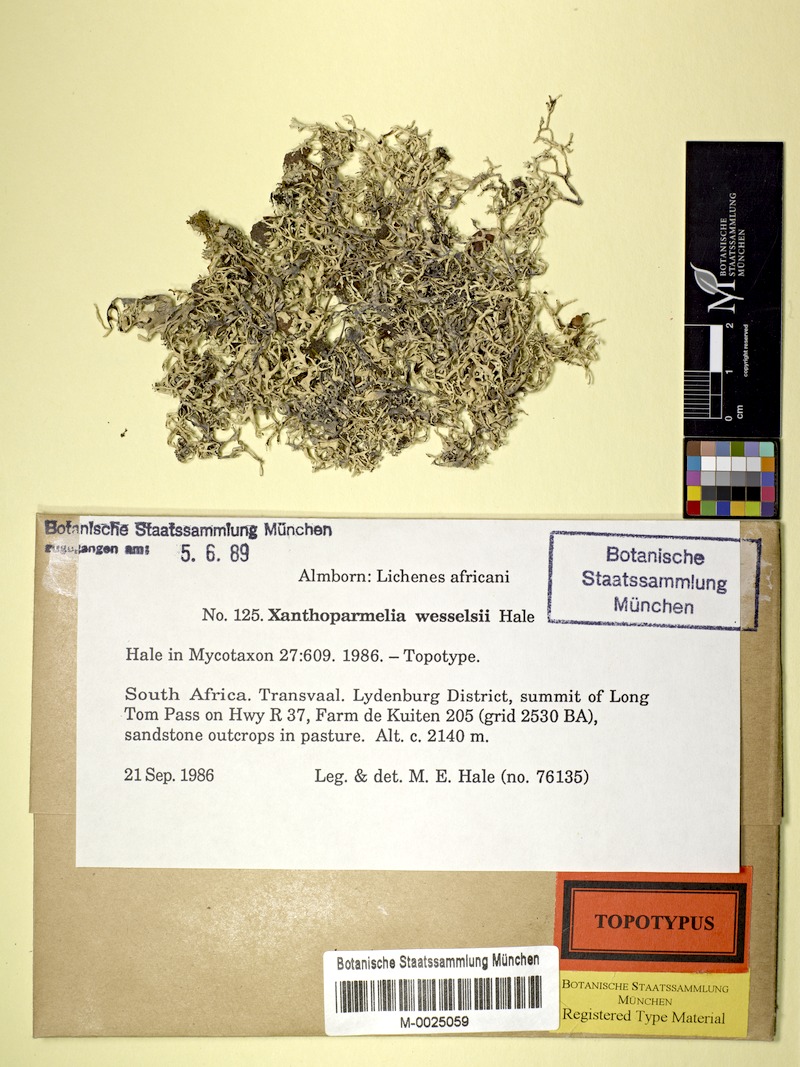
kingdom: Fungi
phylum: Ascomycota
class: Lecanoromycetes
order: Lecanorales
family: Parmeliaceae
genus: Xanthoparmelia
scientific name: Xanthoparmelia wesselsii
